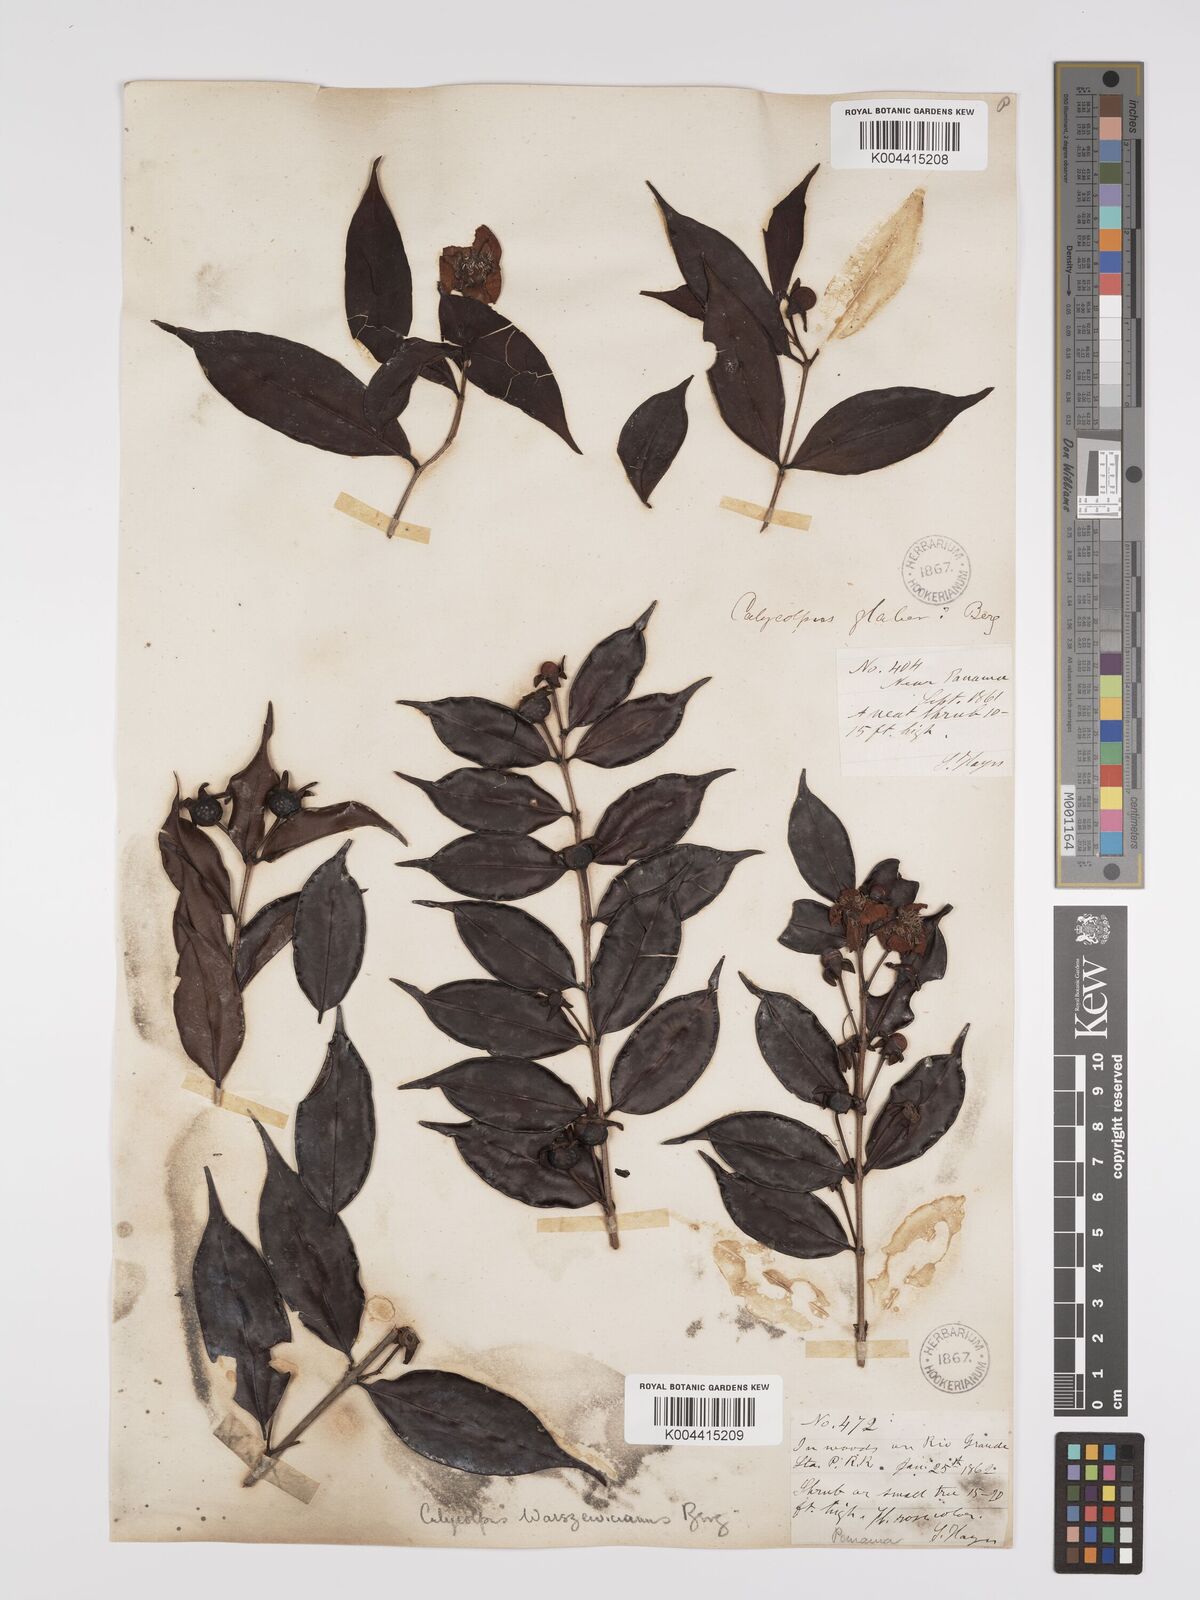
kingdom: Plantae
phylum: Tracheophyta
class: Magnoliopsida
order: Myrtales
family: Myrtaceae
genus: Calycolpus
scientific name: Calycolpus warszewiczianus
